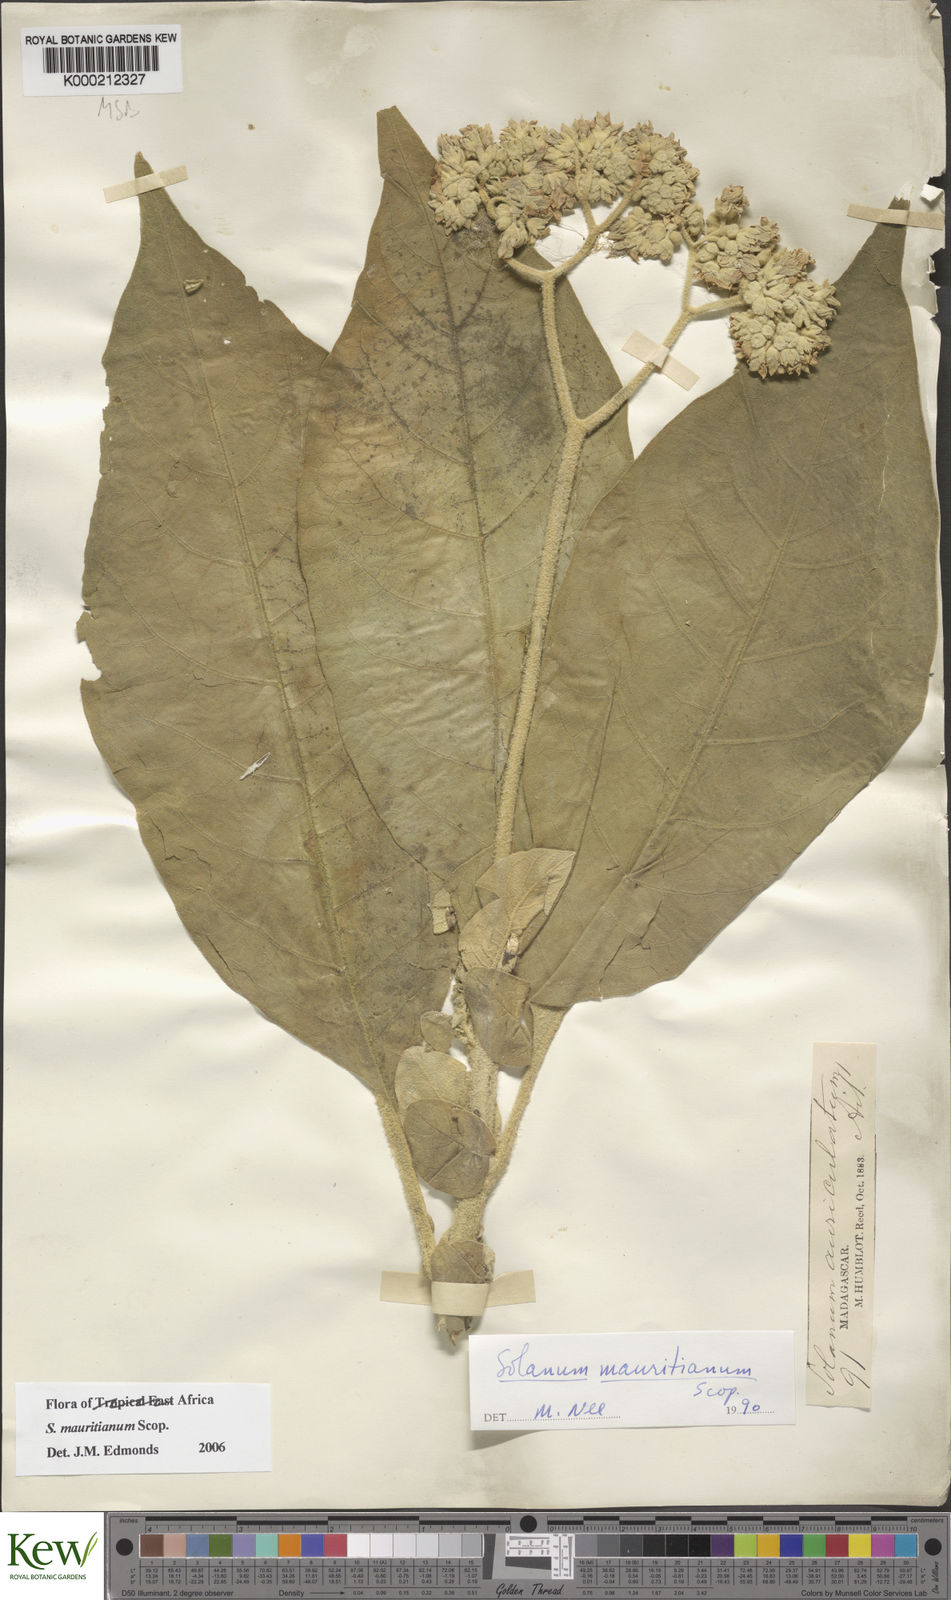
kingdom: Plantae
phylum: Tracheophyta
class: Magnoliopsida
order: Solanales
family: Solanaceae
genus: Solanum
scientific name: Solanum mauritianum
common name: Earleaf nightshade
